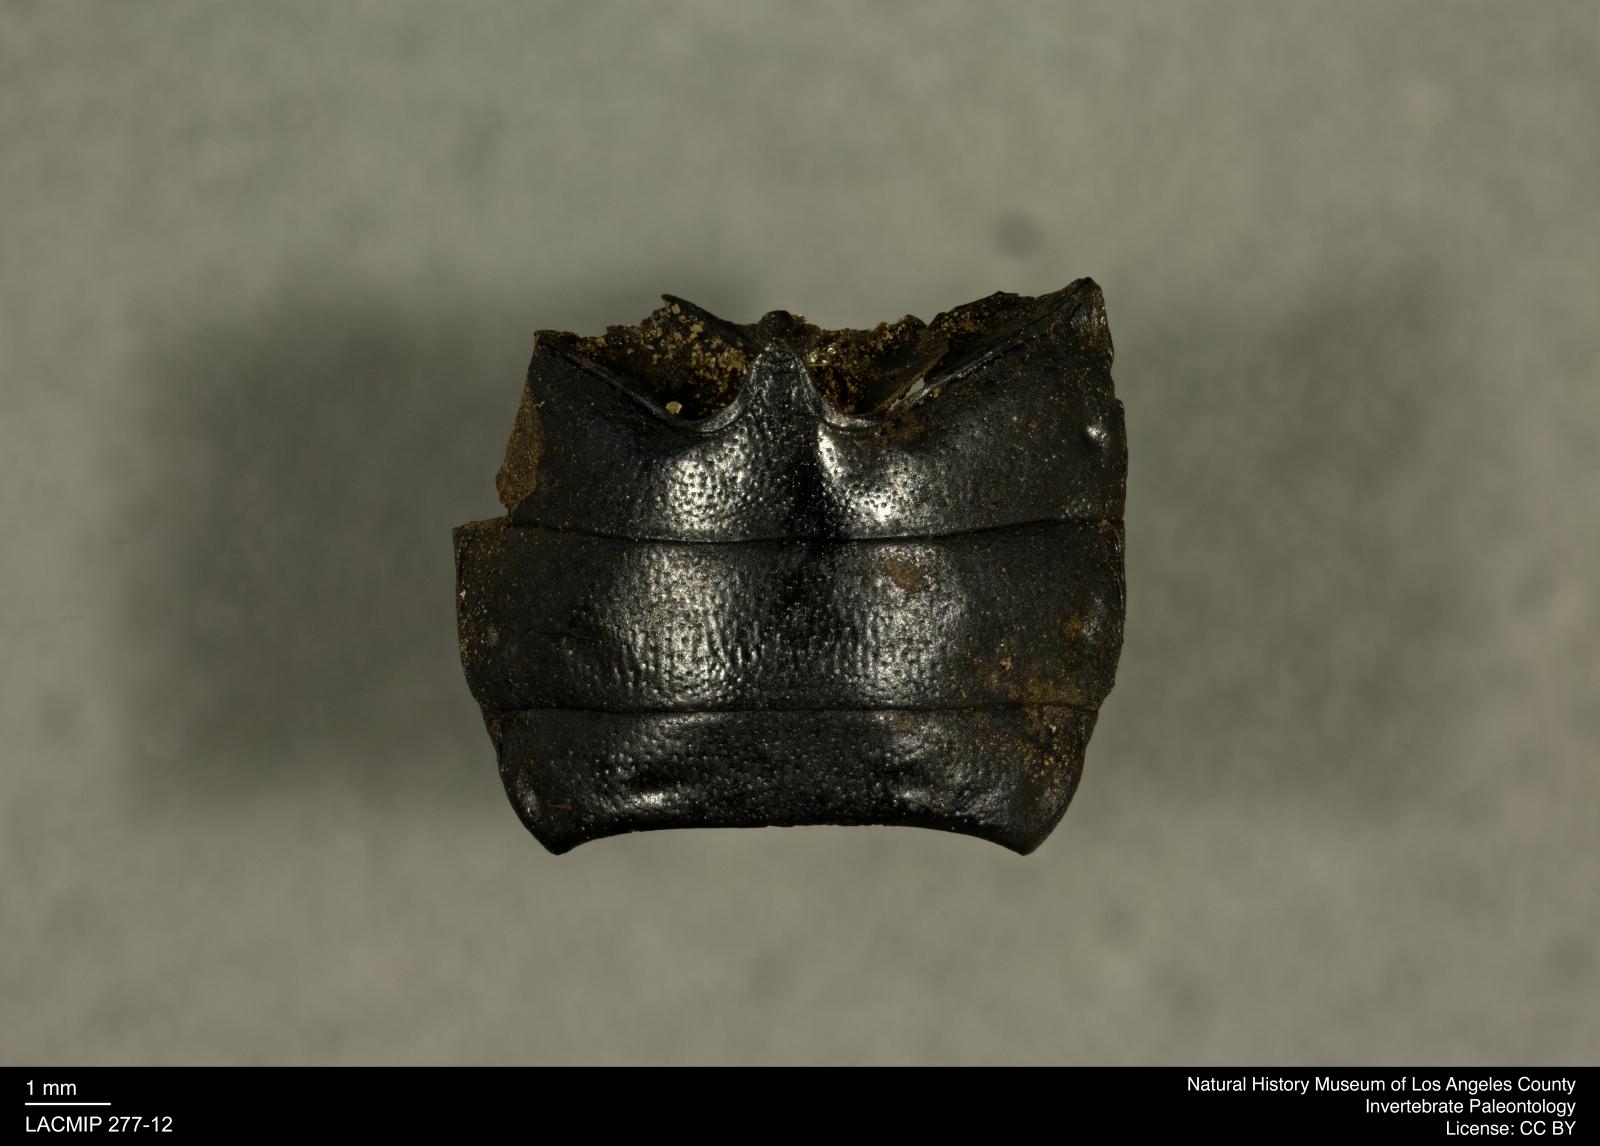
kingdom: Animalia
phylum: Arthropoda
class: Insecta
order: Coleoptera
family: Tenebrionidae
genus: Coniontis
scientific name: Coniontis abdominalis
